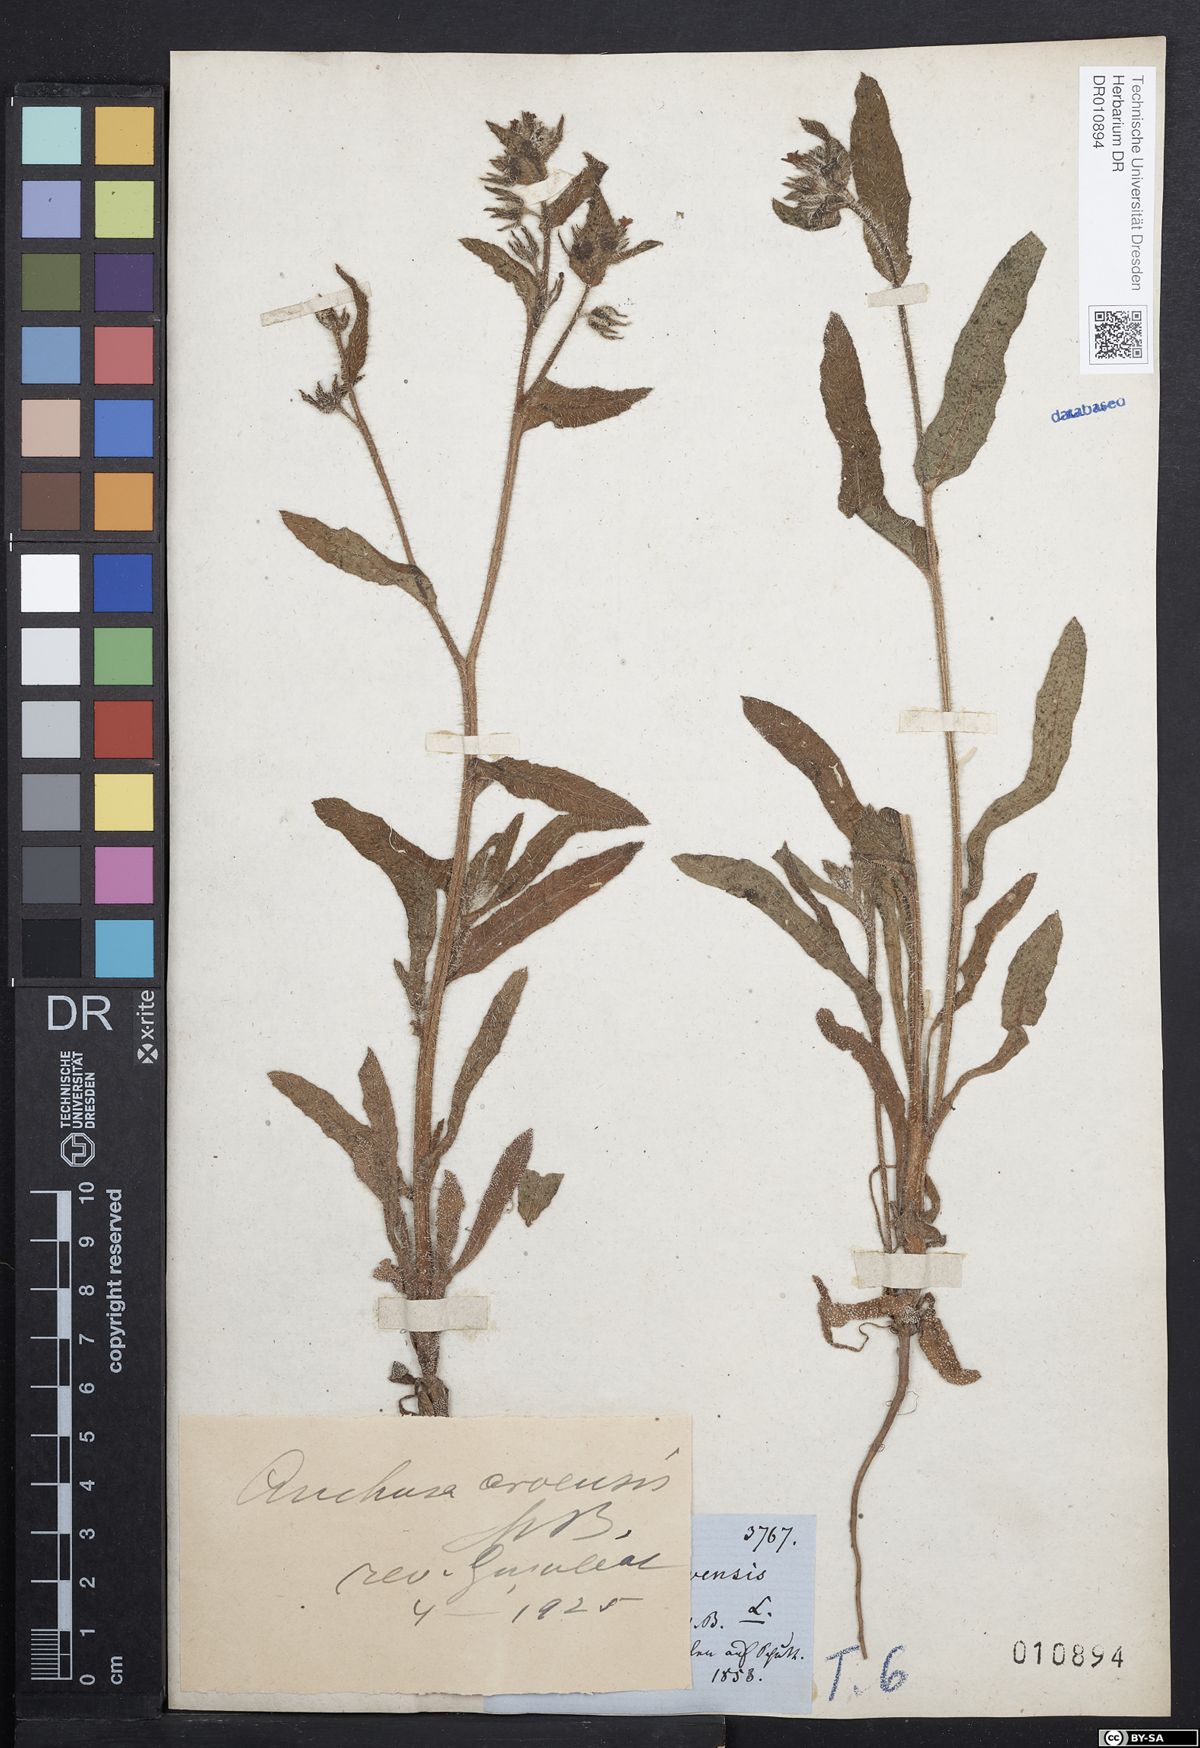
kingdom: Plantae
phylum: Tracheophyta
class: Magnoliopsida
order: Boraginales
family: Boraginaceae
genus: Lycopsis
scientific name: Lycopsis arvensis
